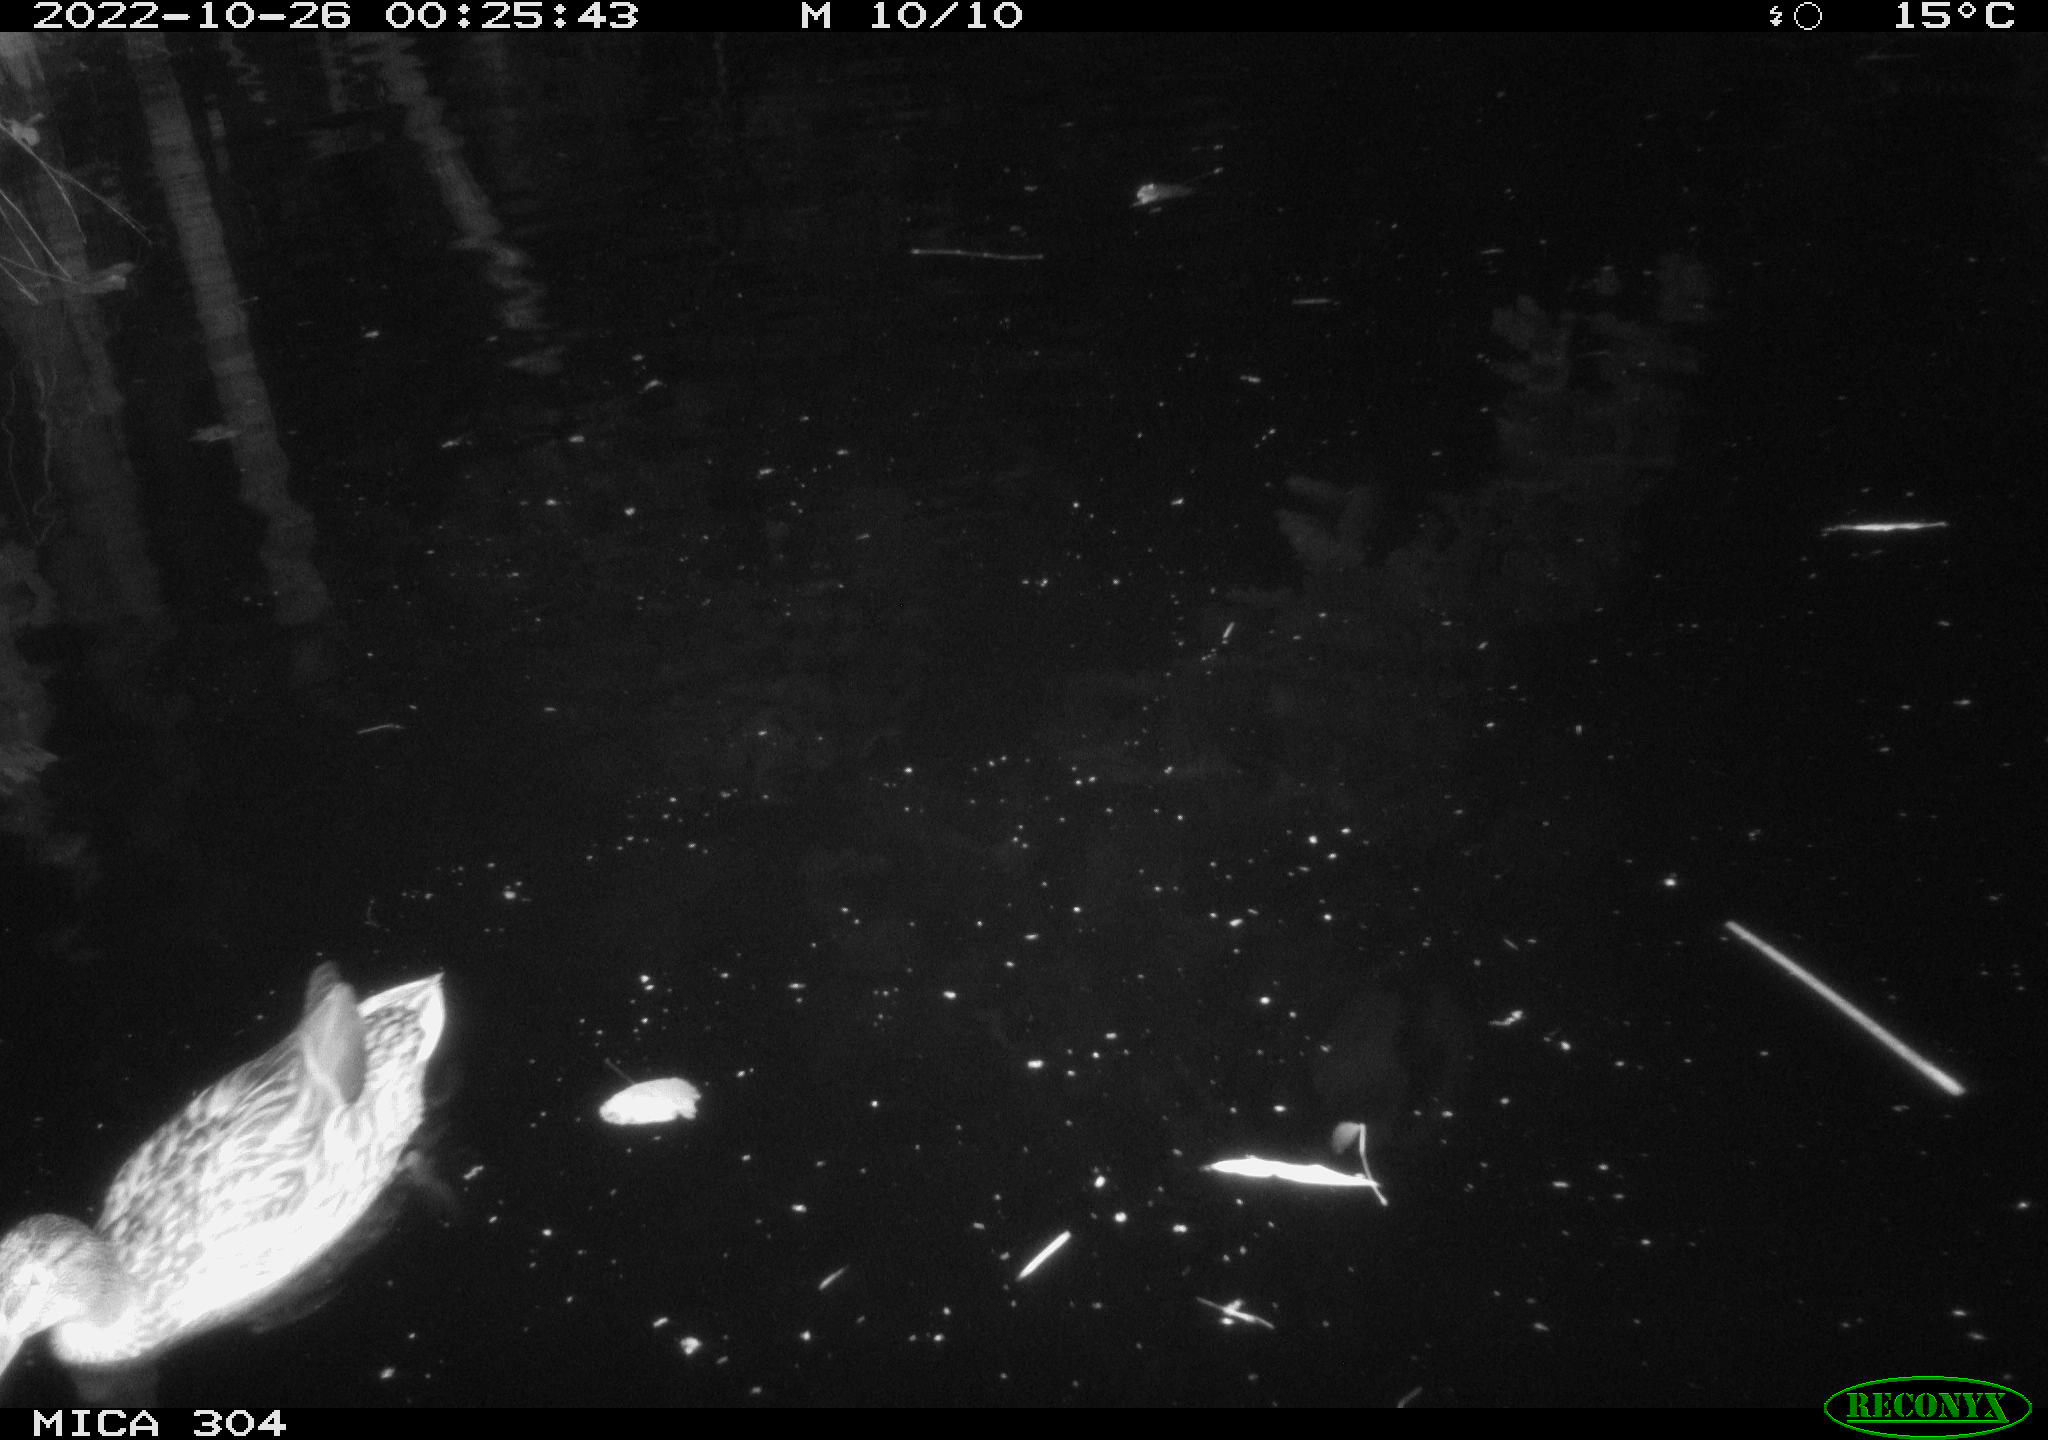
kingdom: Animalia
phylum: Chordata
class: Aves
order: Anseriformes
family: Anatidae
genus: Anas
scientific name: Anas
